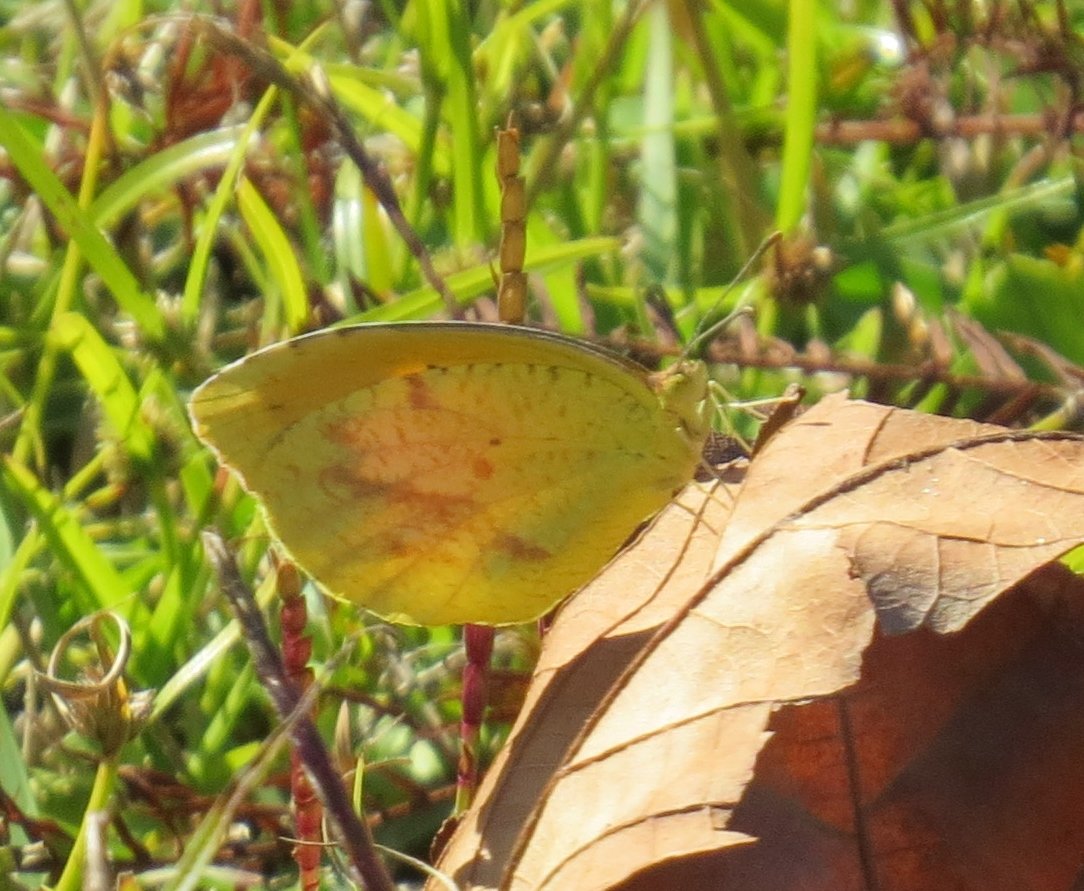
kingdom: Animalia
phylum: Arthropoda
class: Insecta
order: Lepidoptera
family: Pieridae
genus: Abaeis
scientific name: Abaeis nicippe
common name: Sleepy Orange
